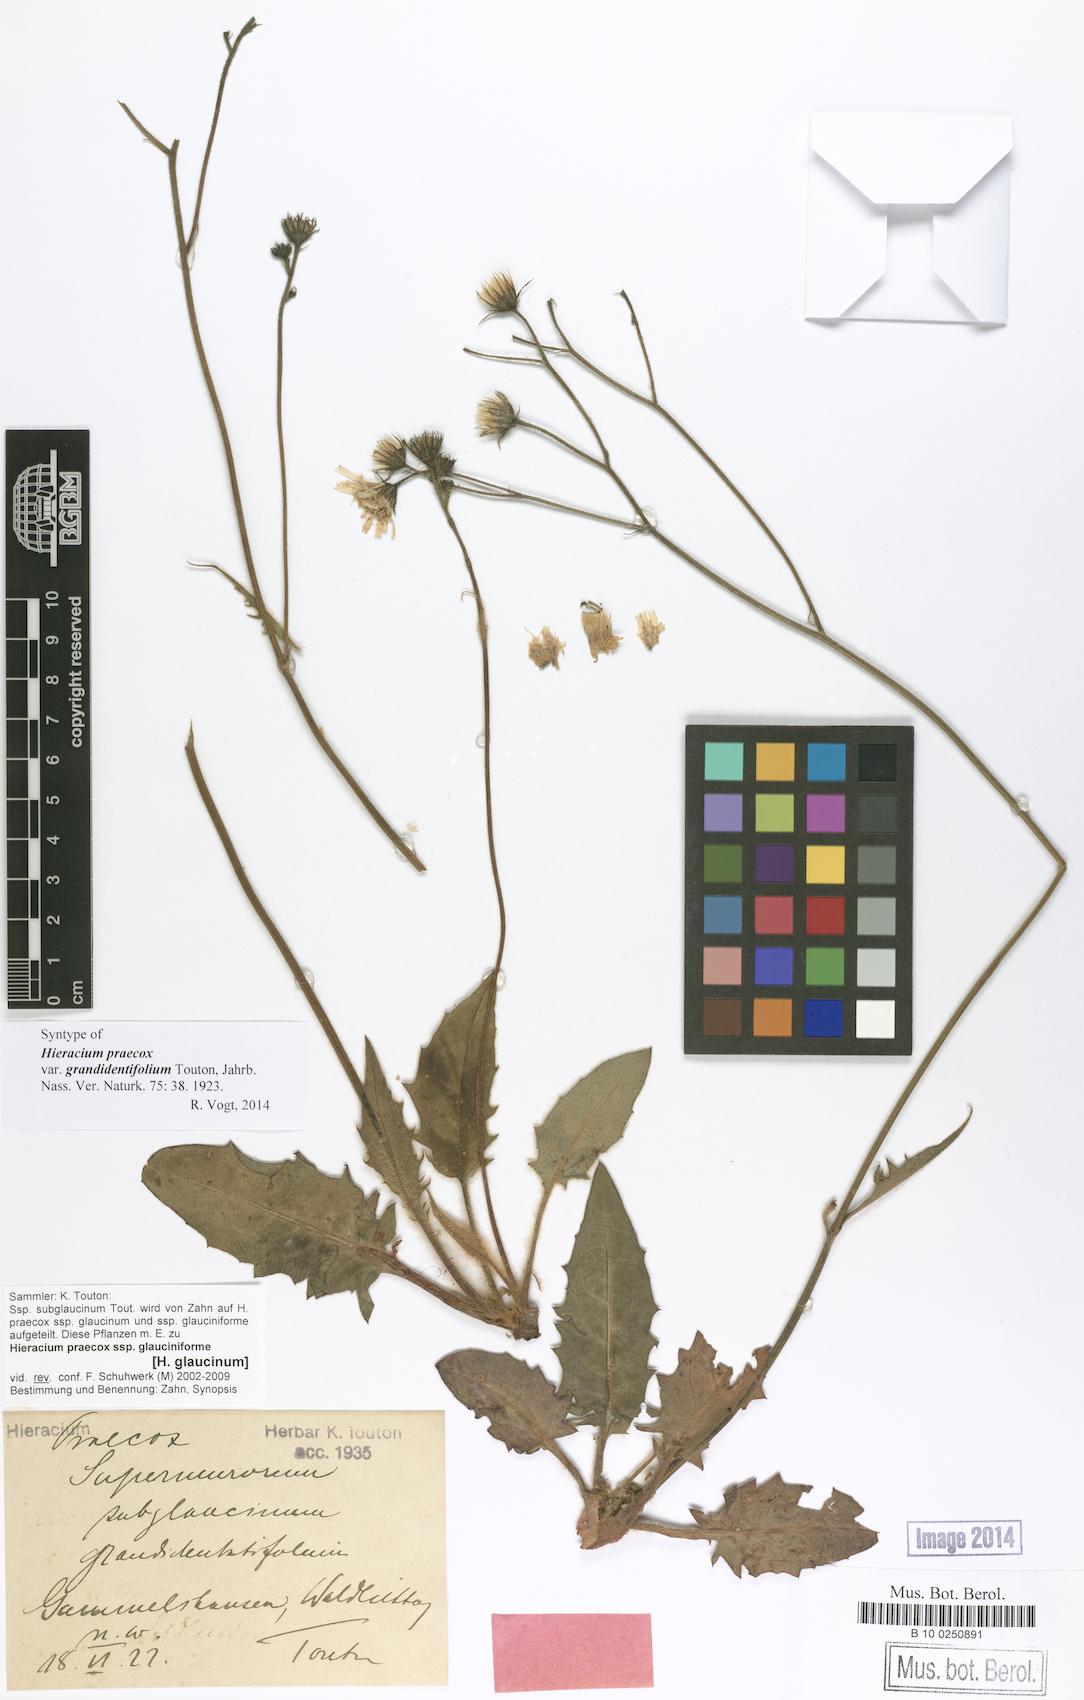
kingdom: Plantae
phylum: Tracheophyta
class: Magnoliopsida
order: Asterales
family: Asteraceae
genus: Hieracium
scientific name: Hieracium praecox
